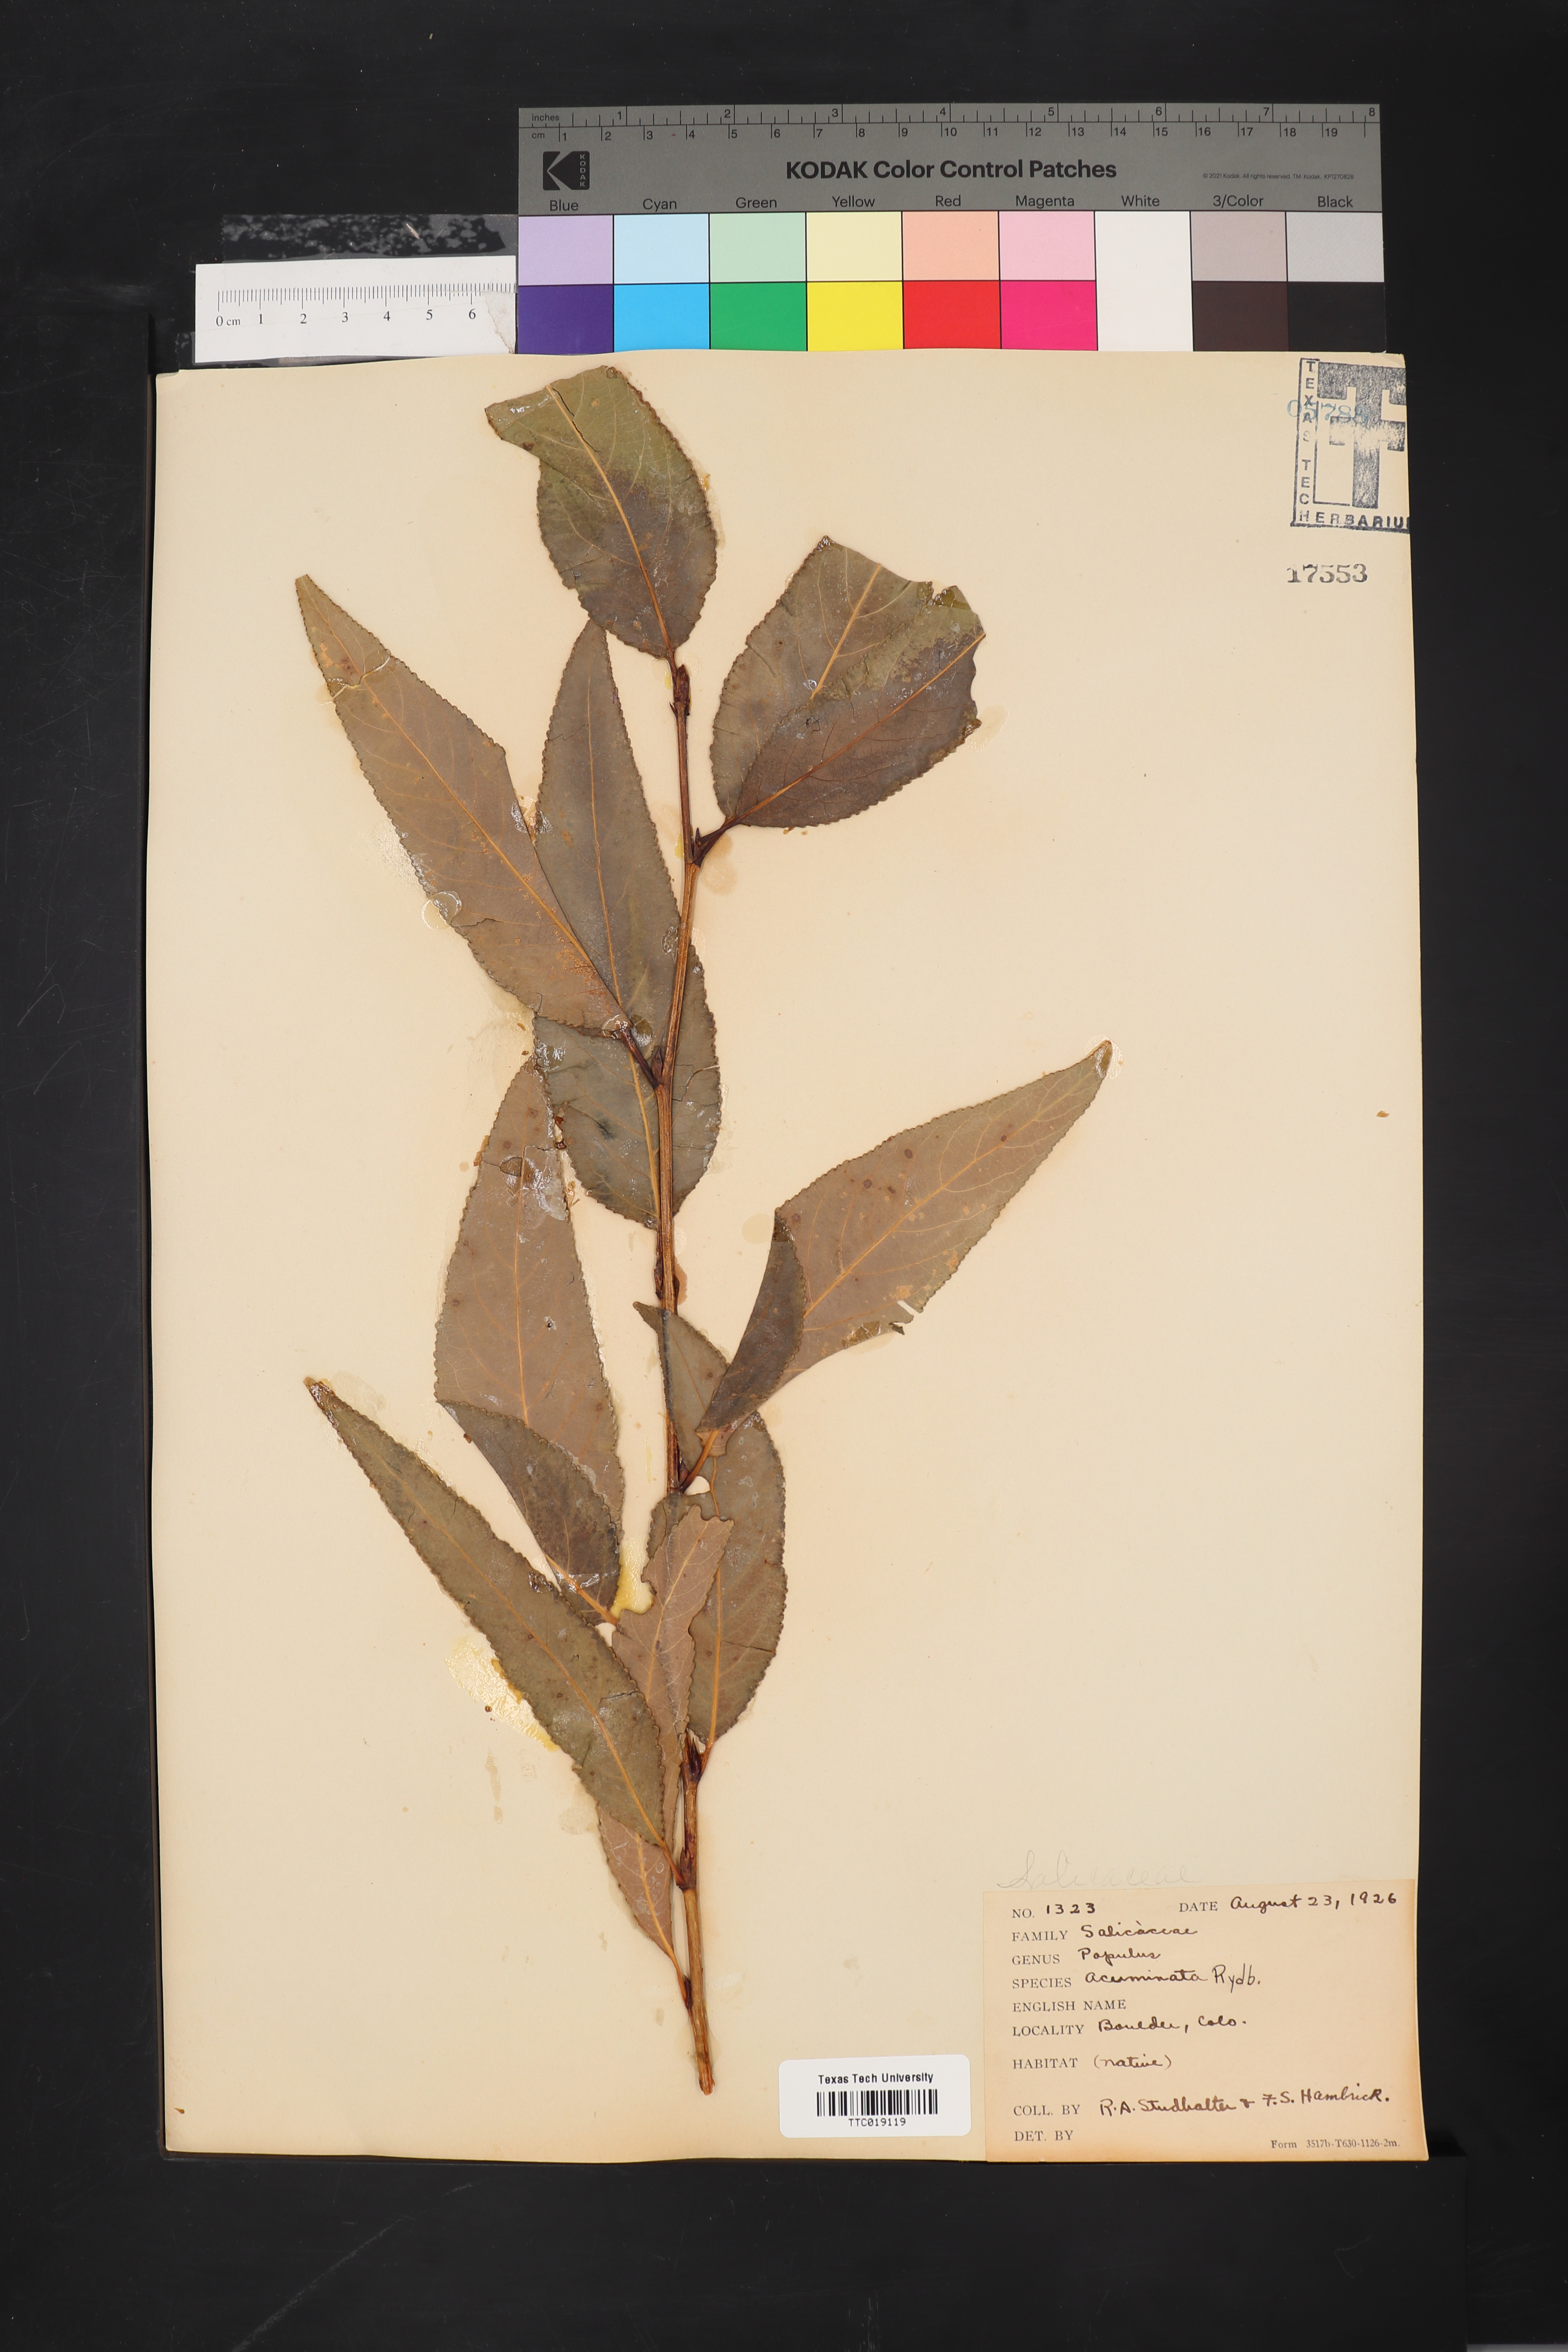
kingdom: Plantae
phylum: Tracheophyta
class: Magnoliopsida
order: Malpighiales
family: Salicaceae
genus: Populus
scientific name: Populus acuminata
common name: Lance-leaved cottonwood
